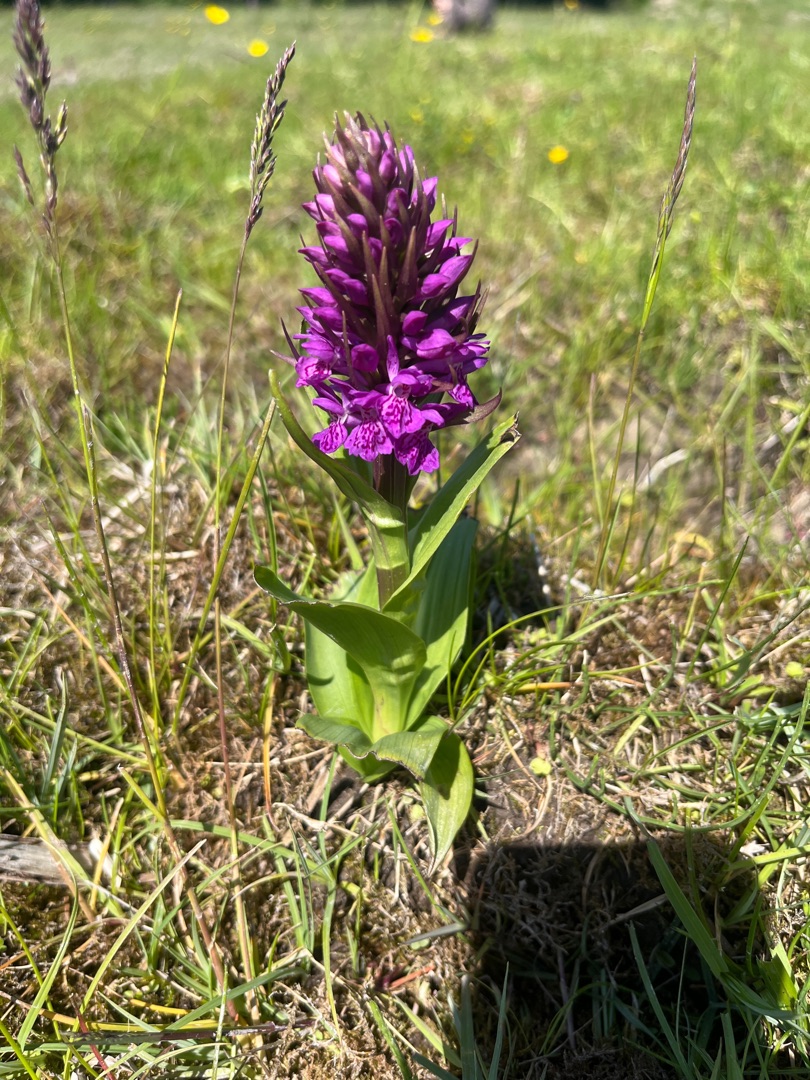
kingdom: Plantae
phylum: Tracheophyta
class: Liliopsida
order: Asparagales
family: Orchidaceae
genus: Dactylorhiza
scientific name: Dactylorhiza majalis
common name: Purpur-gøgeurt
